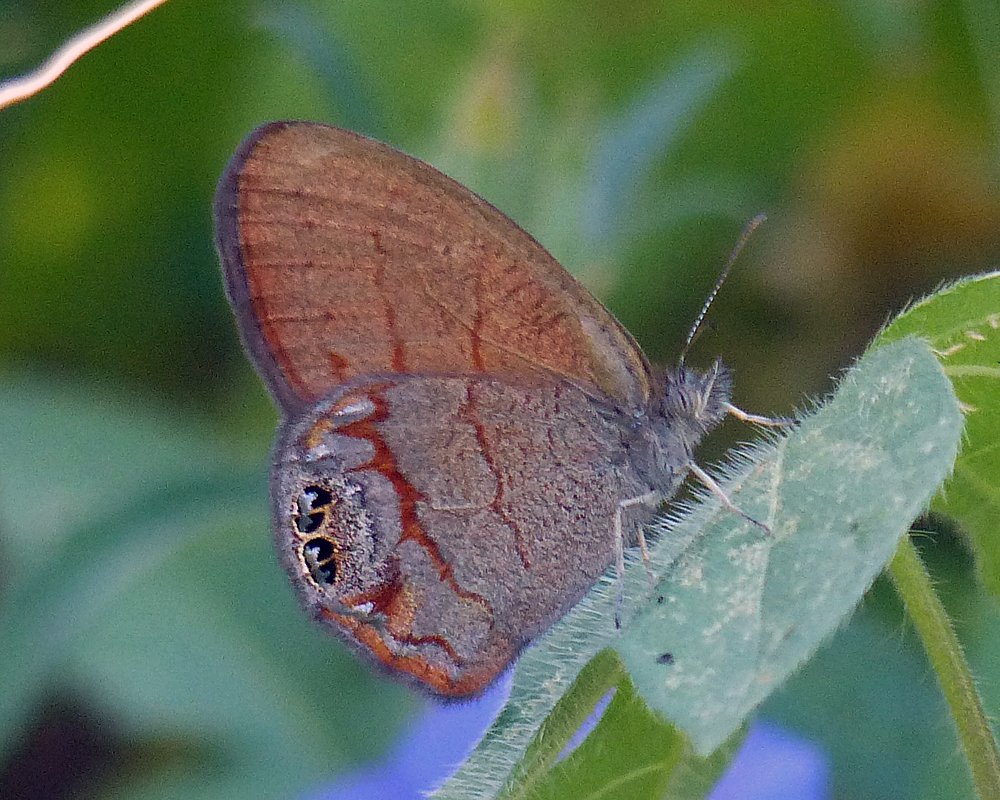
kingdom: Animalia
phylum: Arthropoda
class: Insecta
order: Lepidoptera
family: Nymphalidae
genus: Euptychia
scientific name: Euptychia pyracmon
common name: Nabokov's Satyr
